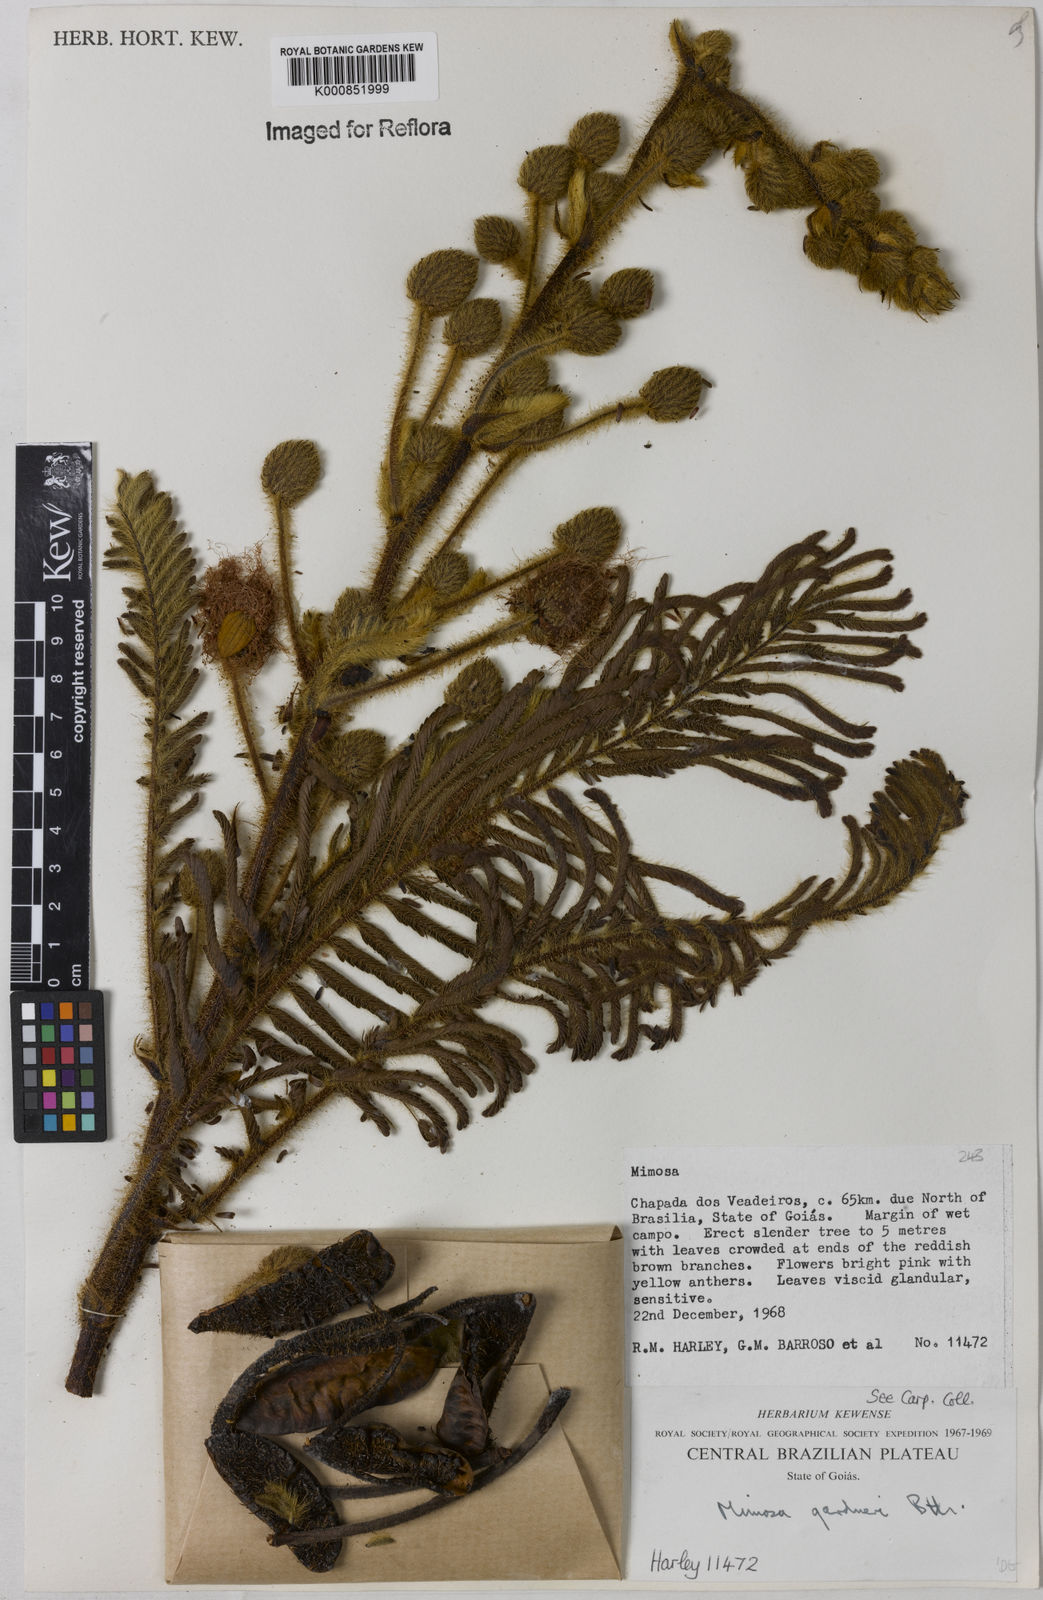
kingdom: Plantae
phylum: Tracheophyta
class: Magnoliopsida
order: Fabales
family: Fabaceae
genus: Mimosa
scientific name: Mimosa dominarum
